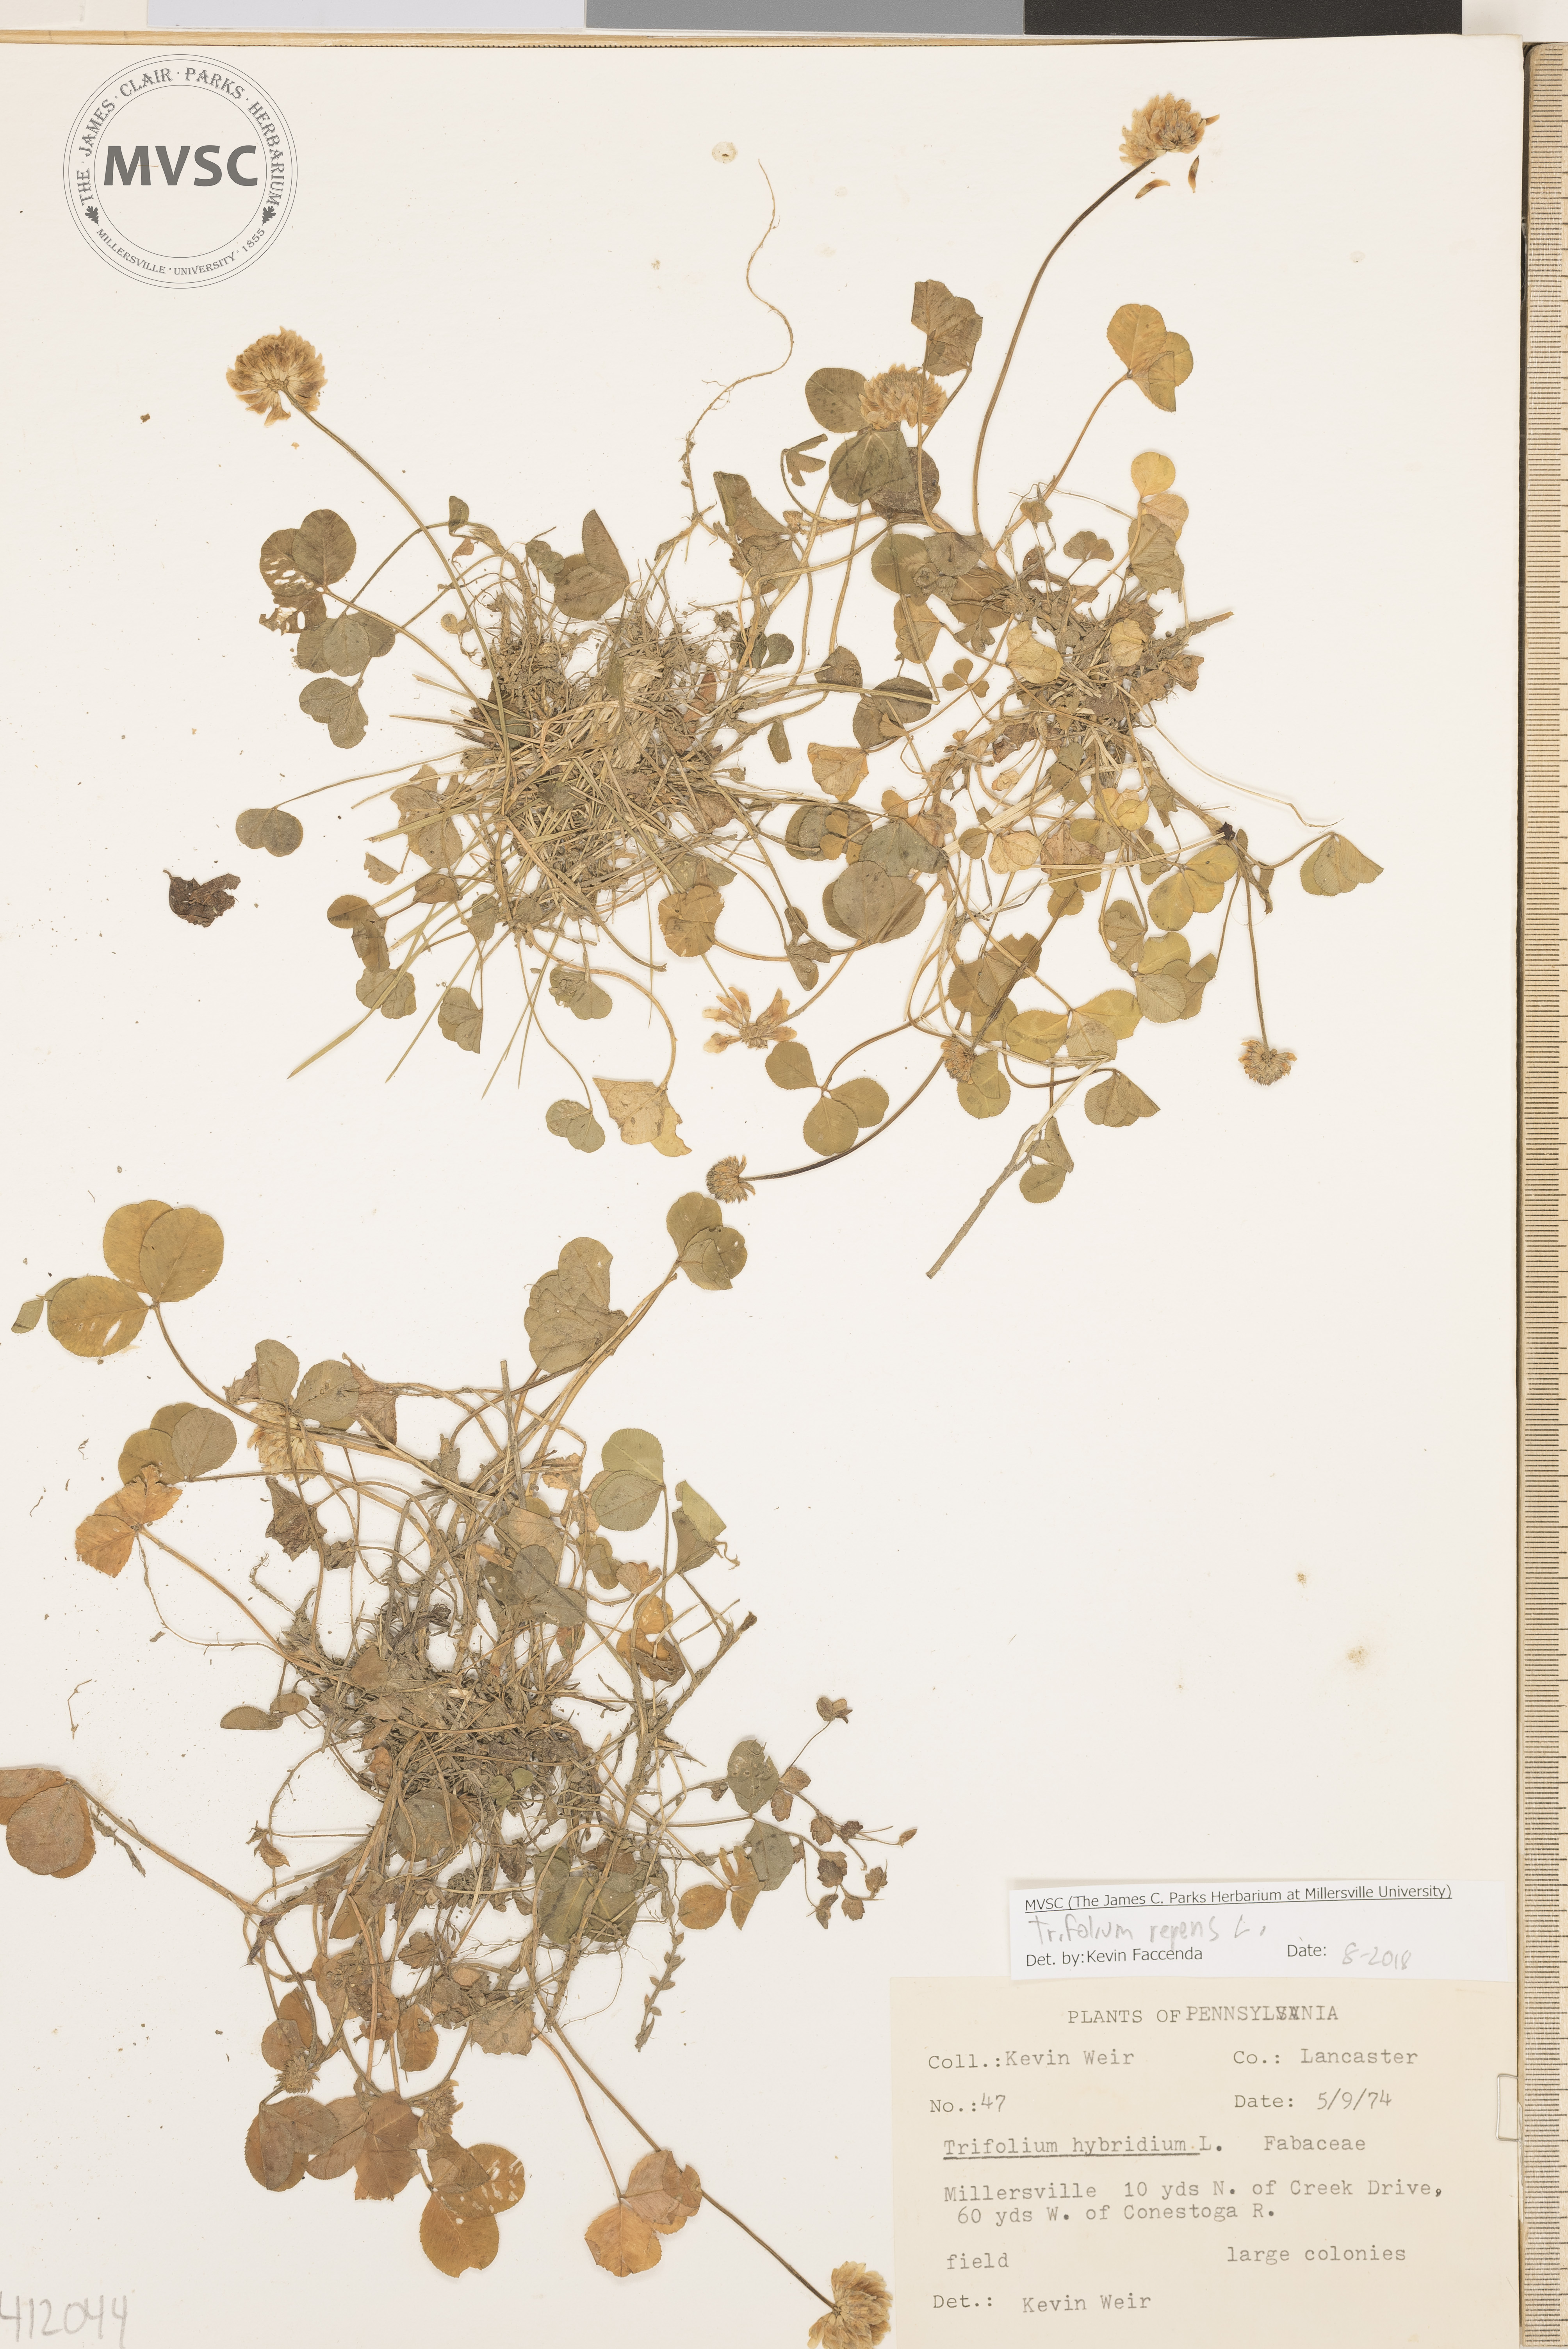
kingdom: Plantae
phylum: Tracheophyta
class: Magnoliopsida
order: Fabales
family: Fabaceae
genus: Trifolium
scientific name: Trifolium repens
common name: White clover
